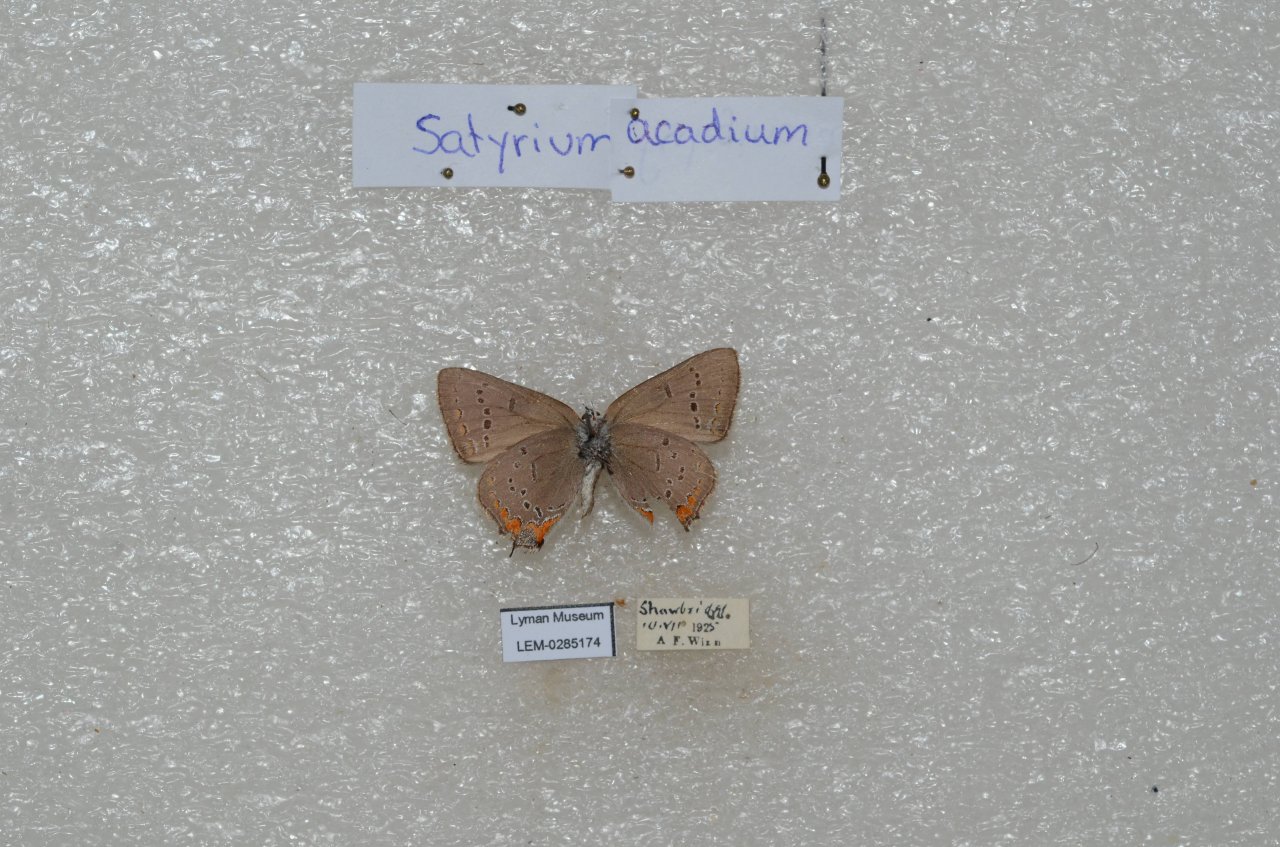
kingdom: Animalia
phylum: Arthropoda
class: Insecta
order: Lepidoptera
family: Lycaenidae
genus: Strymon
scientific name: Strymon acadica
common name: Acadian Hairstreak
